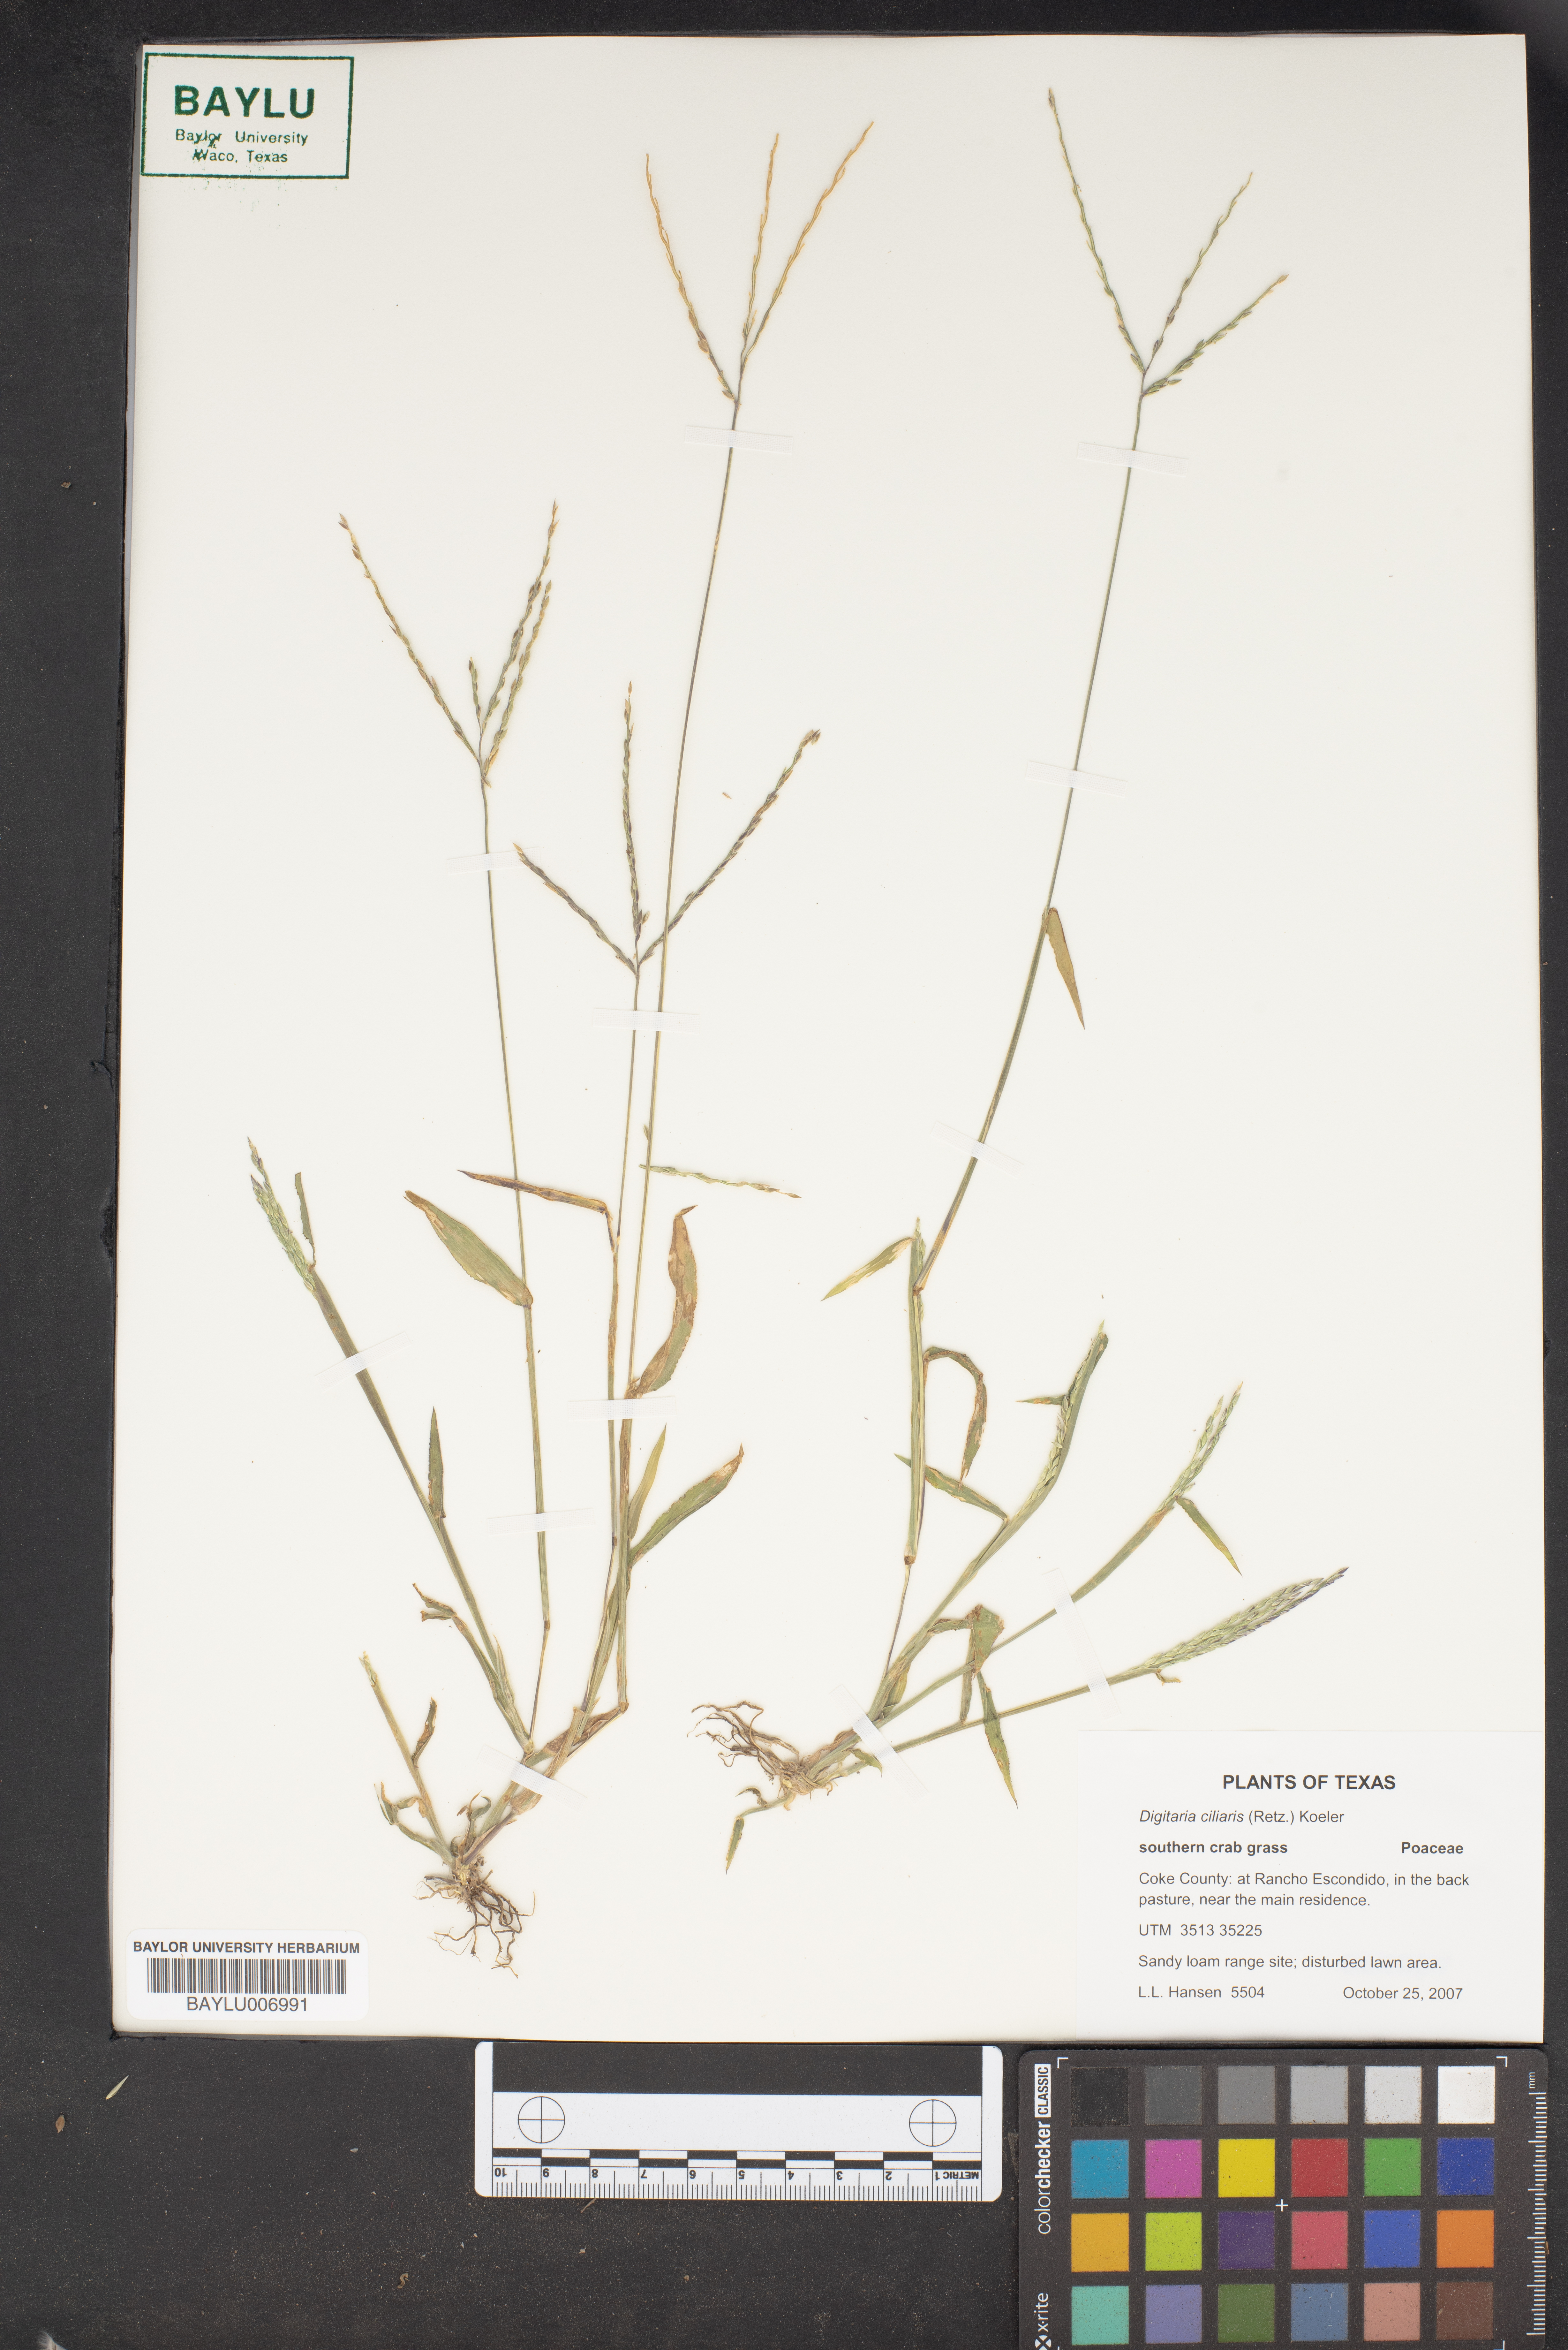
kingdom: Plantae
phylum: Tracheophyta
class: Liliopsida
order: Poales
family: Poaceae
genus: Digitaria
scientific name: Digitaria ciliaris
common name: Tropical finger-grass
